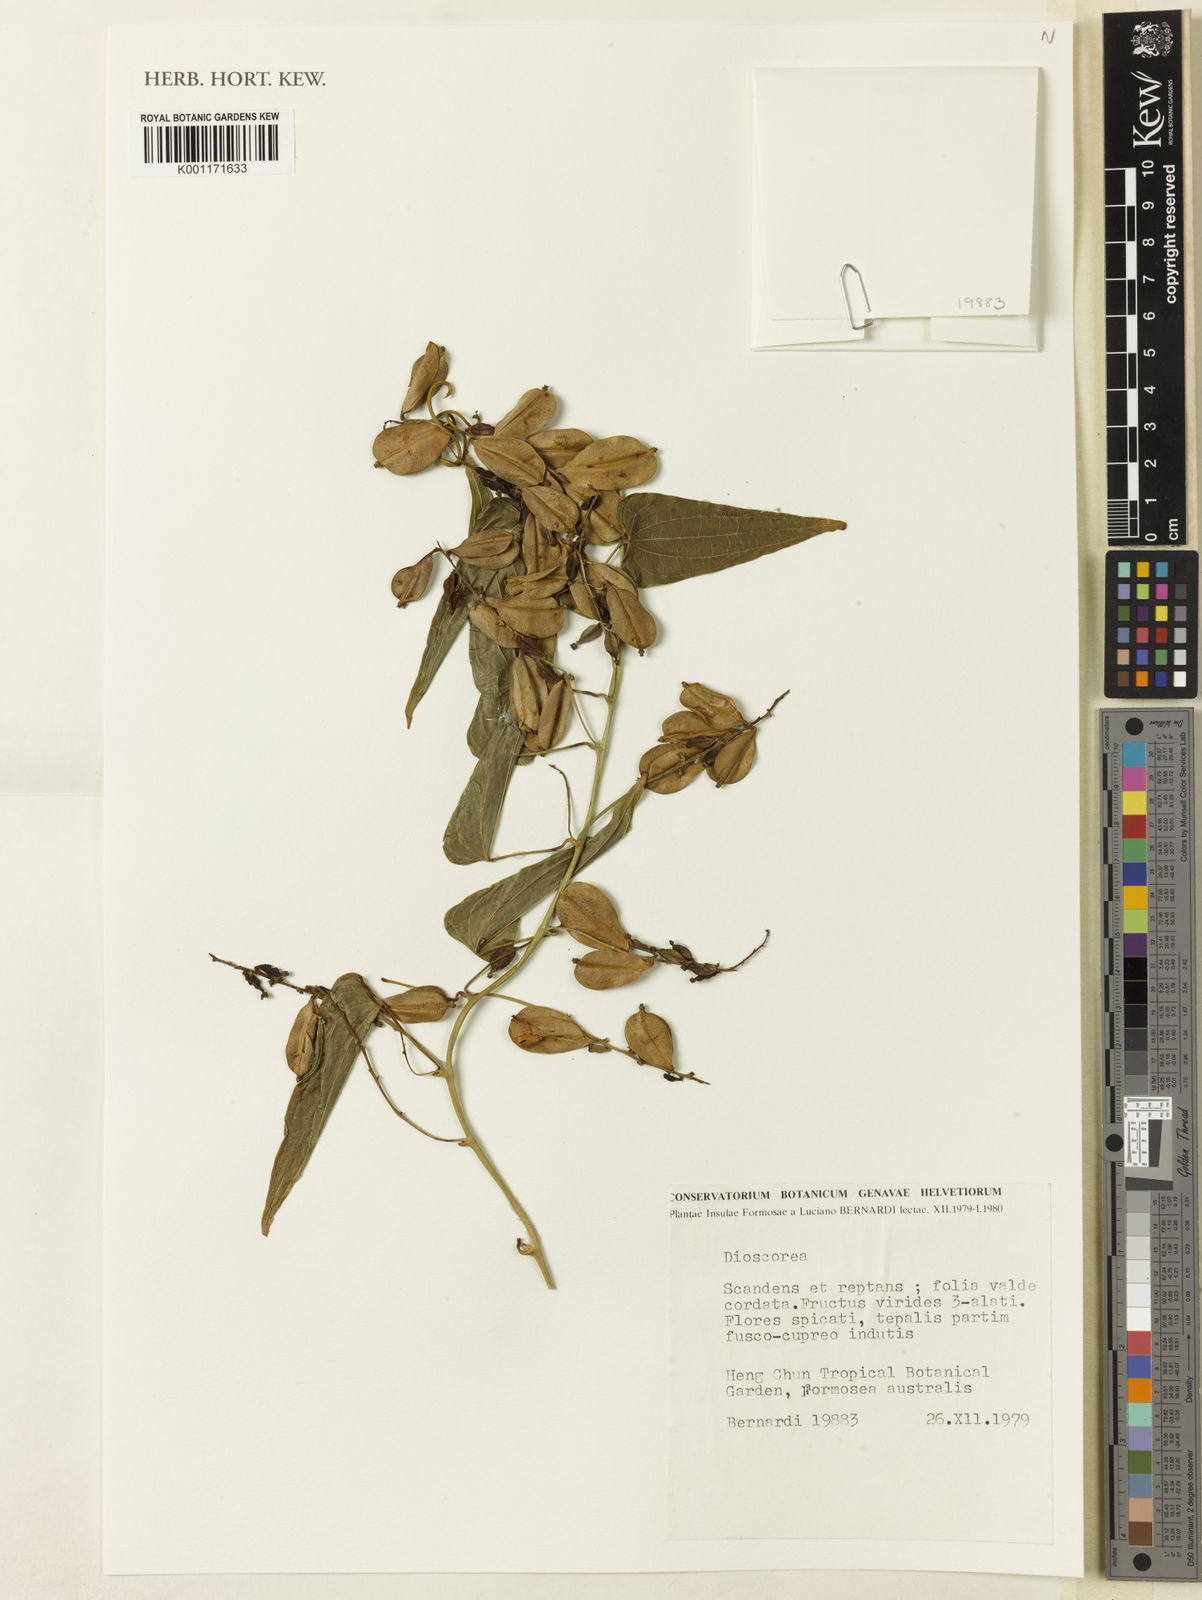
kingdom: Plantae
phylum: Tracheophyta
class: Liliopsida
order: Dioscoreales
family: Dioscoreaceae
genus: Dioscorea
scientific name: Dioscorea
